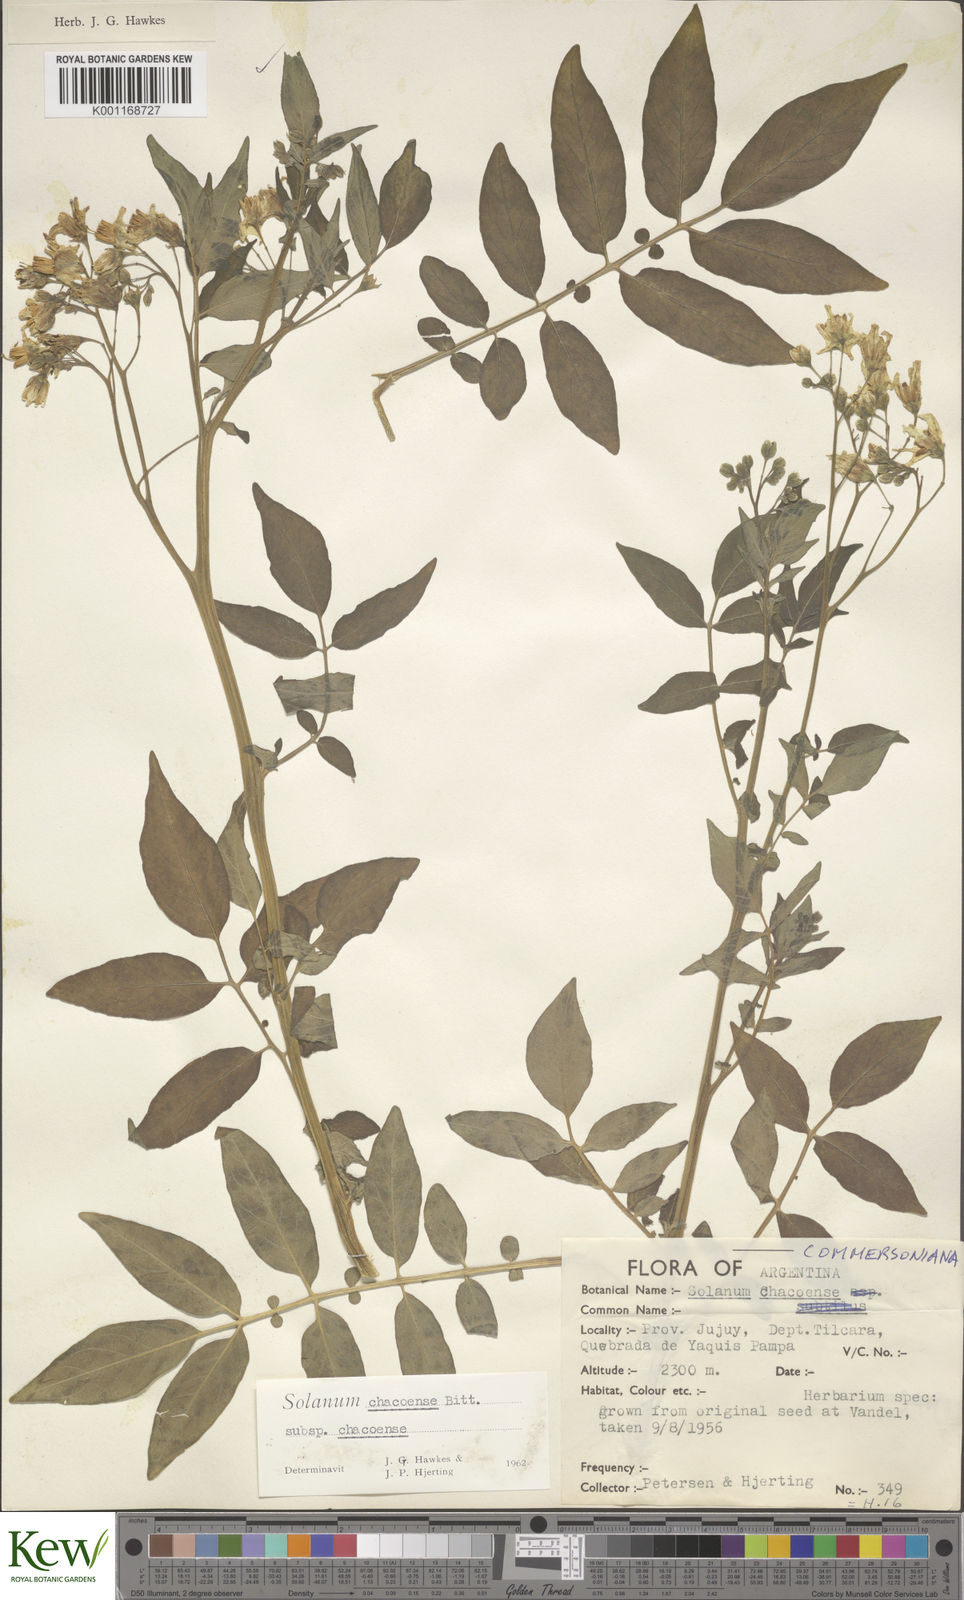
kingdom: Plantae
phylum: Tracheophyta
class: Magnoliopsida
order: Solanales
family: Solanaceae
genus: Solanum
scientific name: Solanum chacoense
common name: Chaco potato
